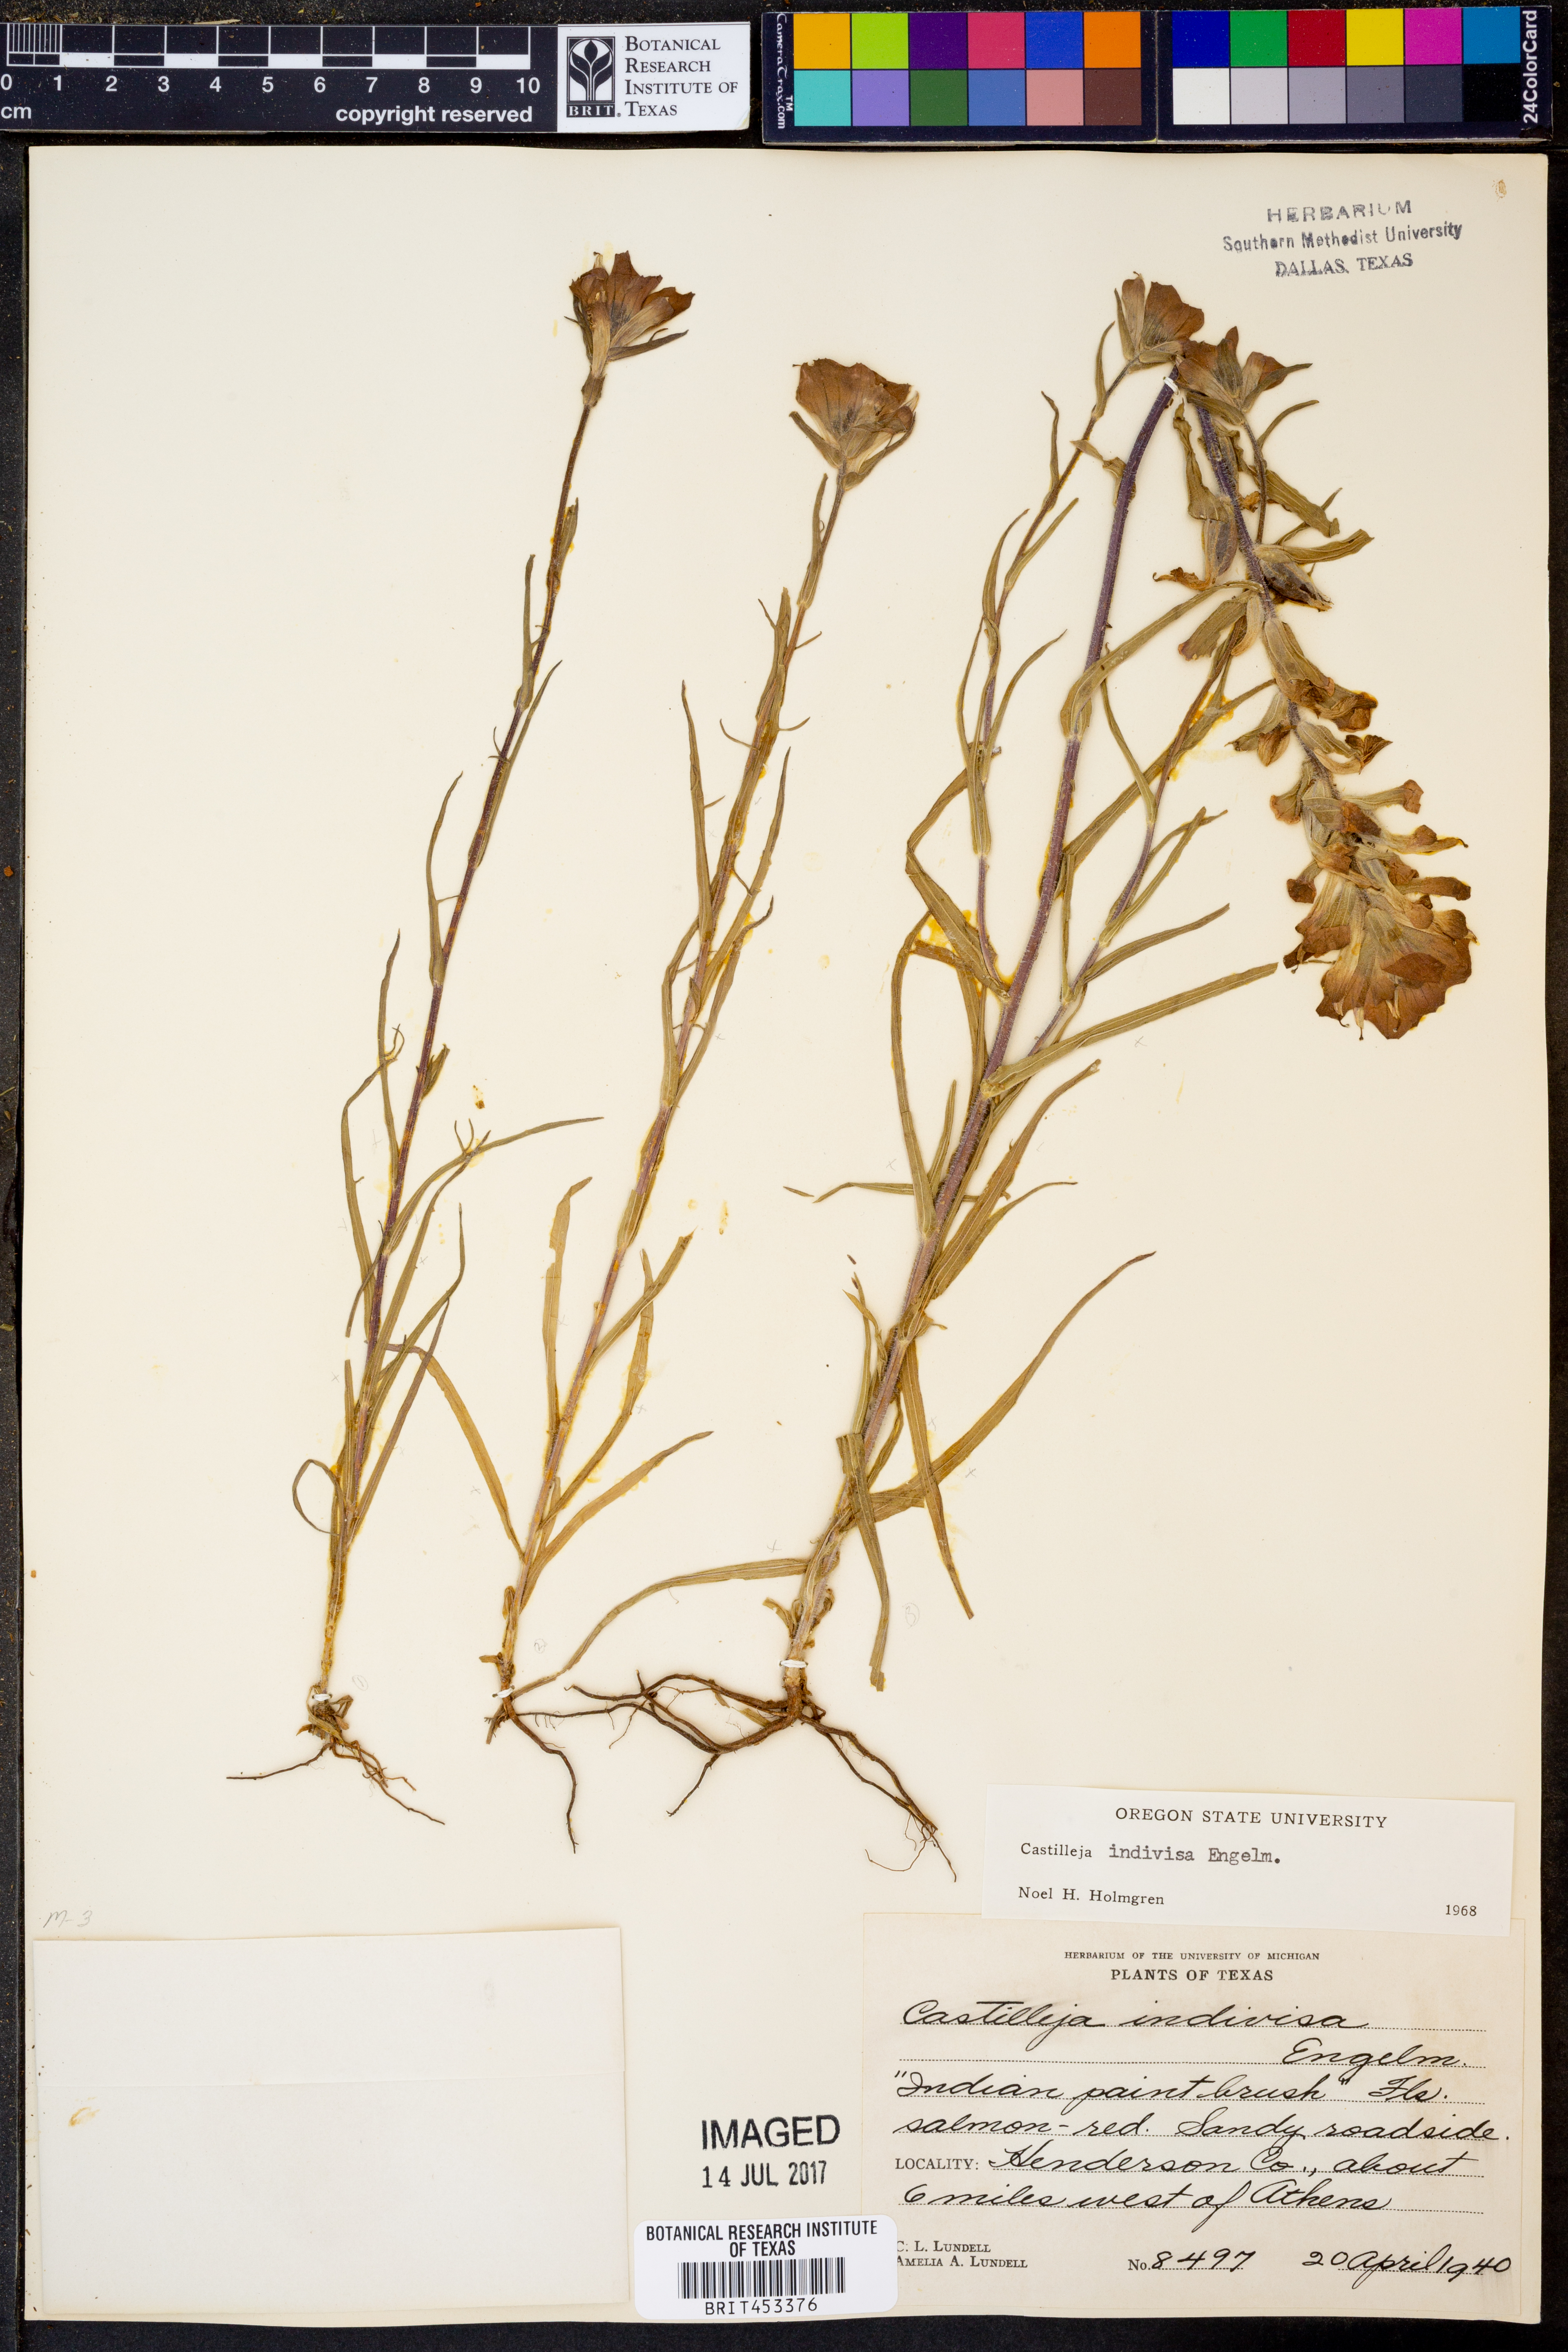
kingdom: Plantae
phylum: Tracheophyta
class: Magnoliopsida
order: Lamiales
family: Orobanchaceae
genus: Castilleja
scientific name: Castilleja indivisa
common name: Texas paintbrush
